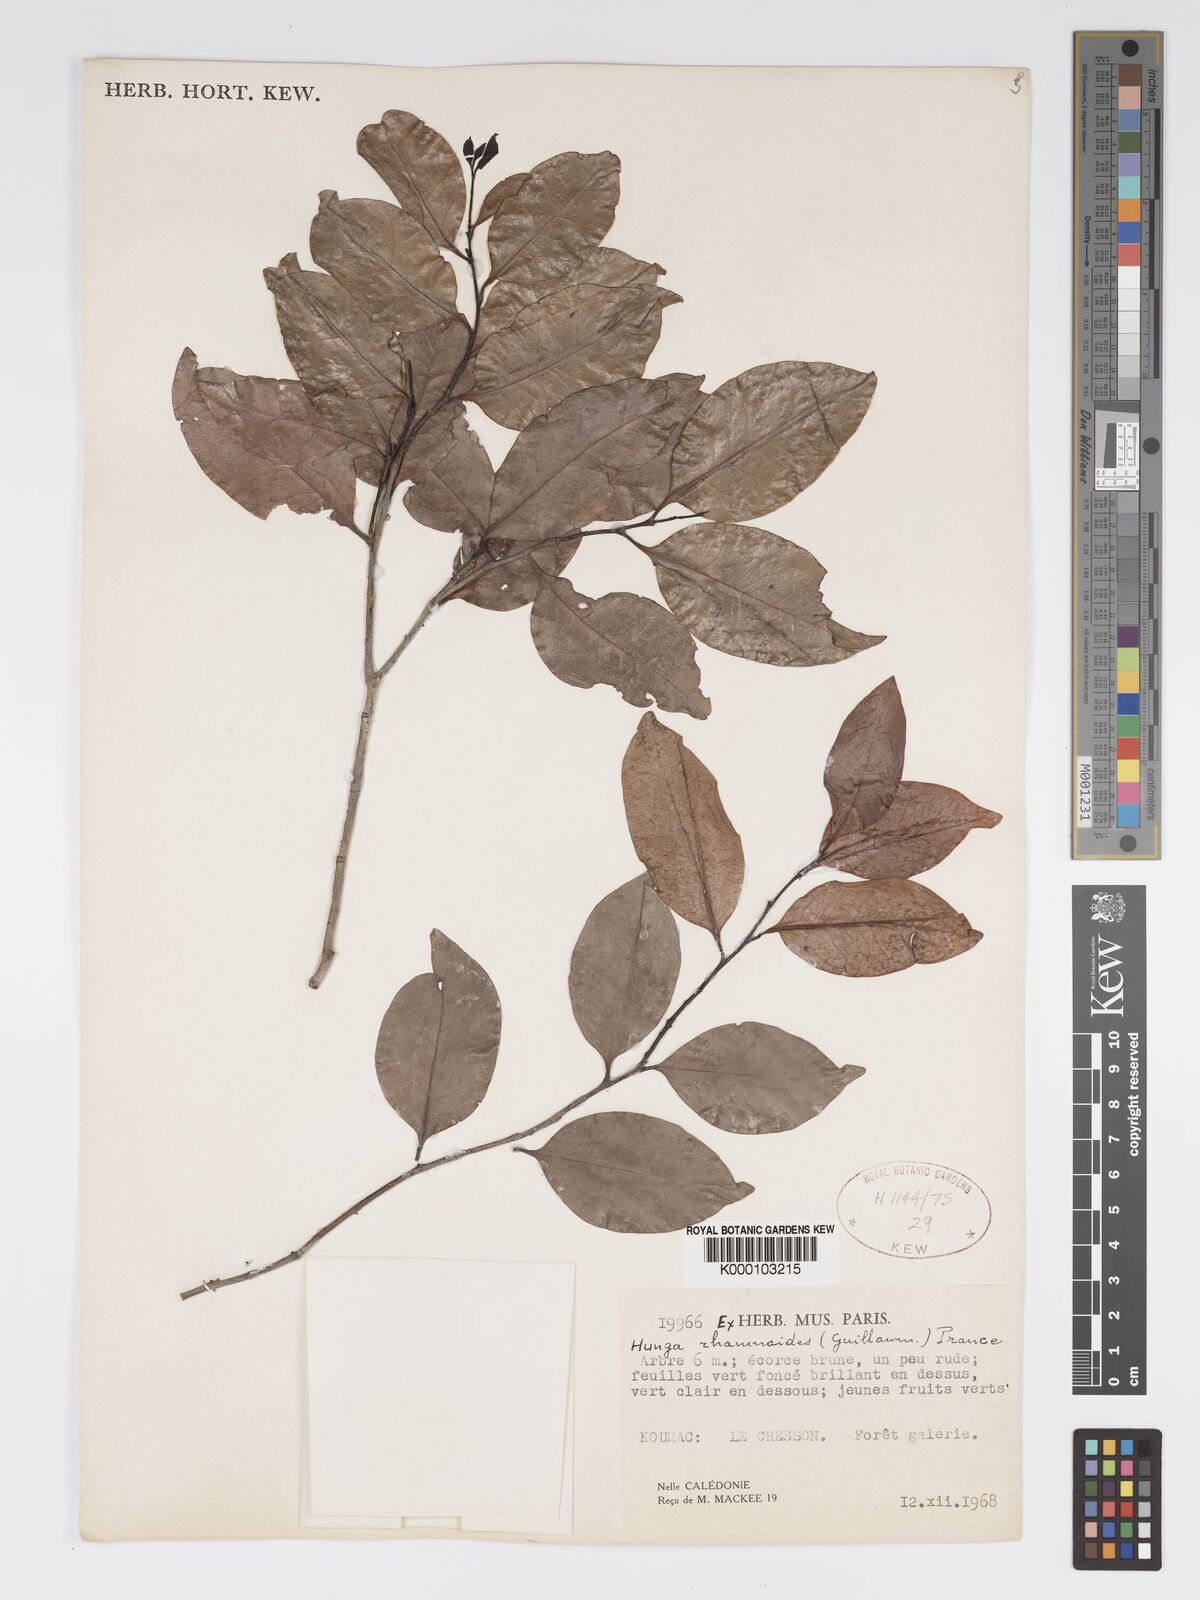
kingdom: Plantae
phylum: Tracheophyta
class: Magnoliopsida
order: Malpighiales
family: Chrysobalanaceae
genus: Hunga
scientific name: Hunga rhamnoides
